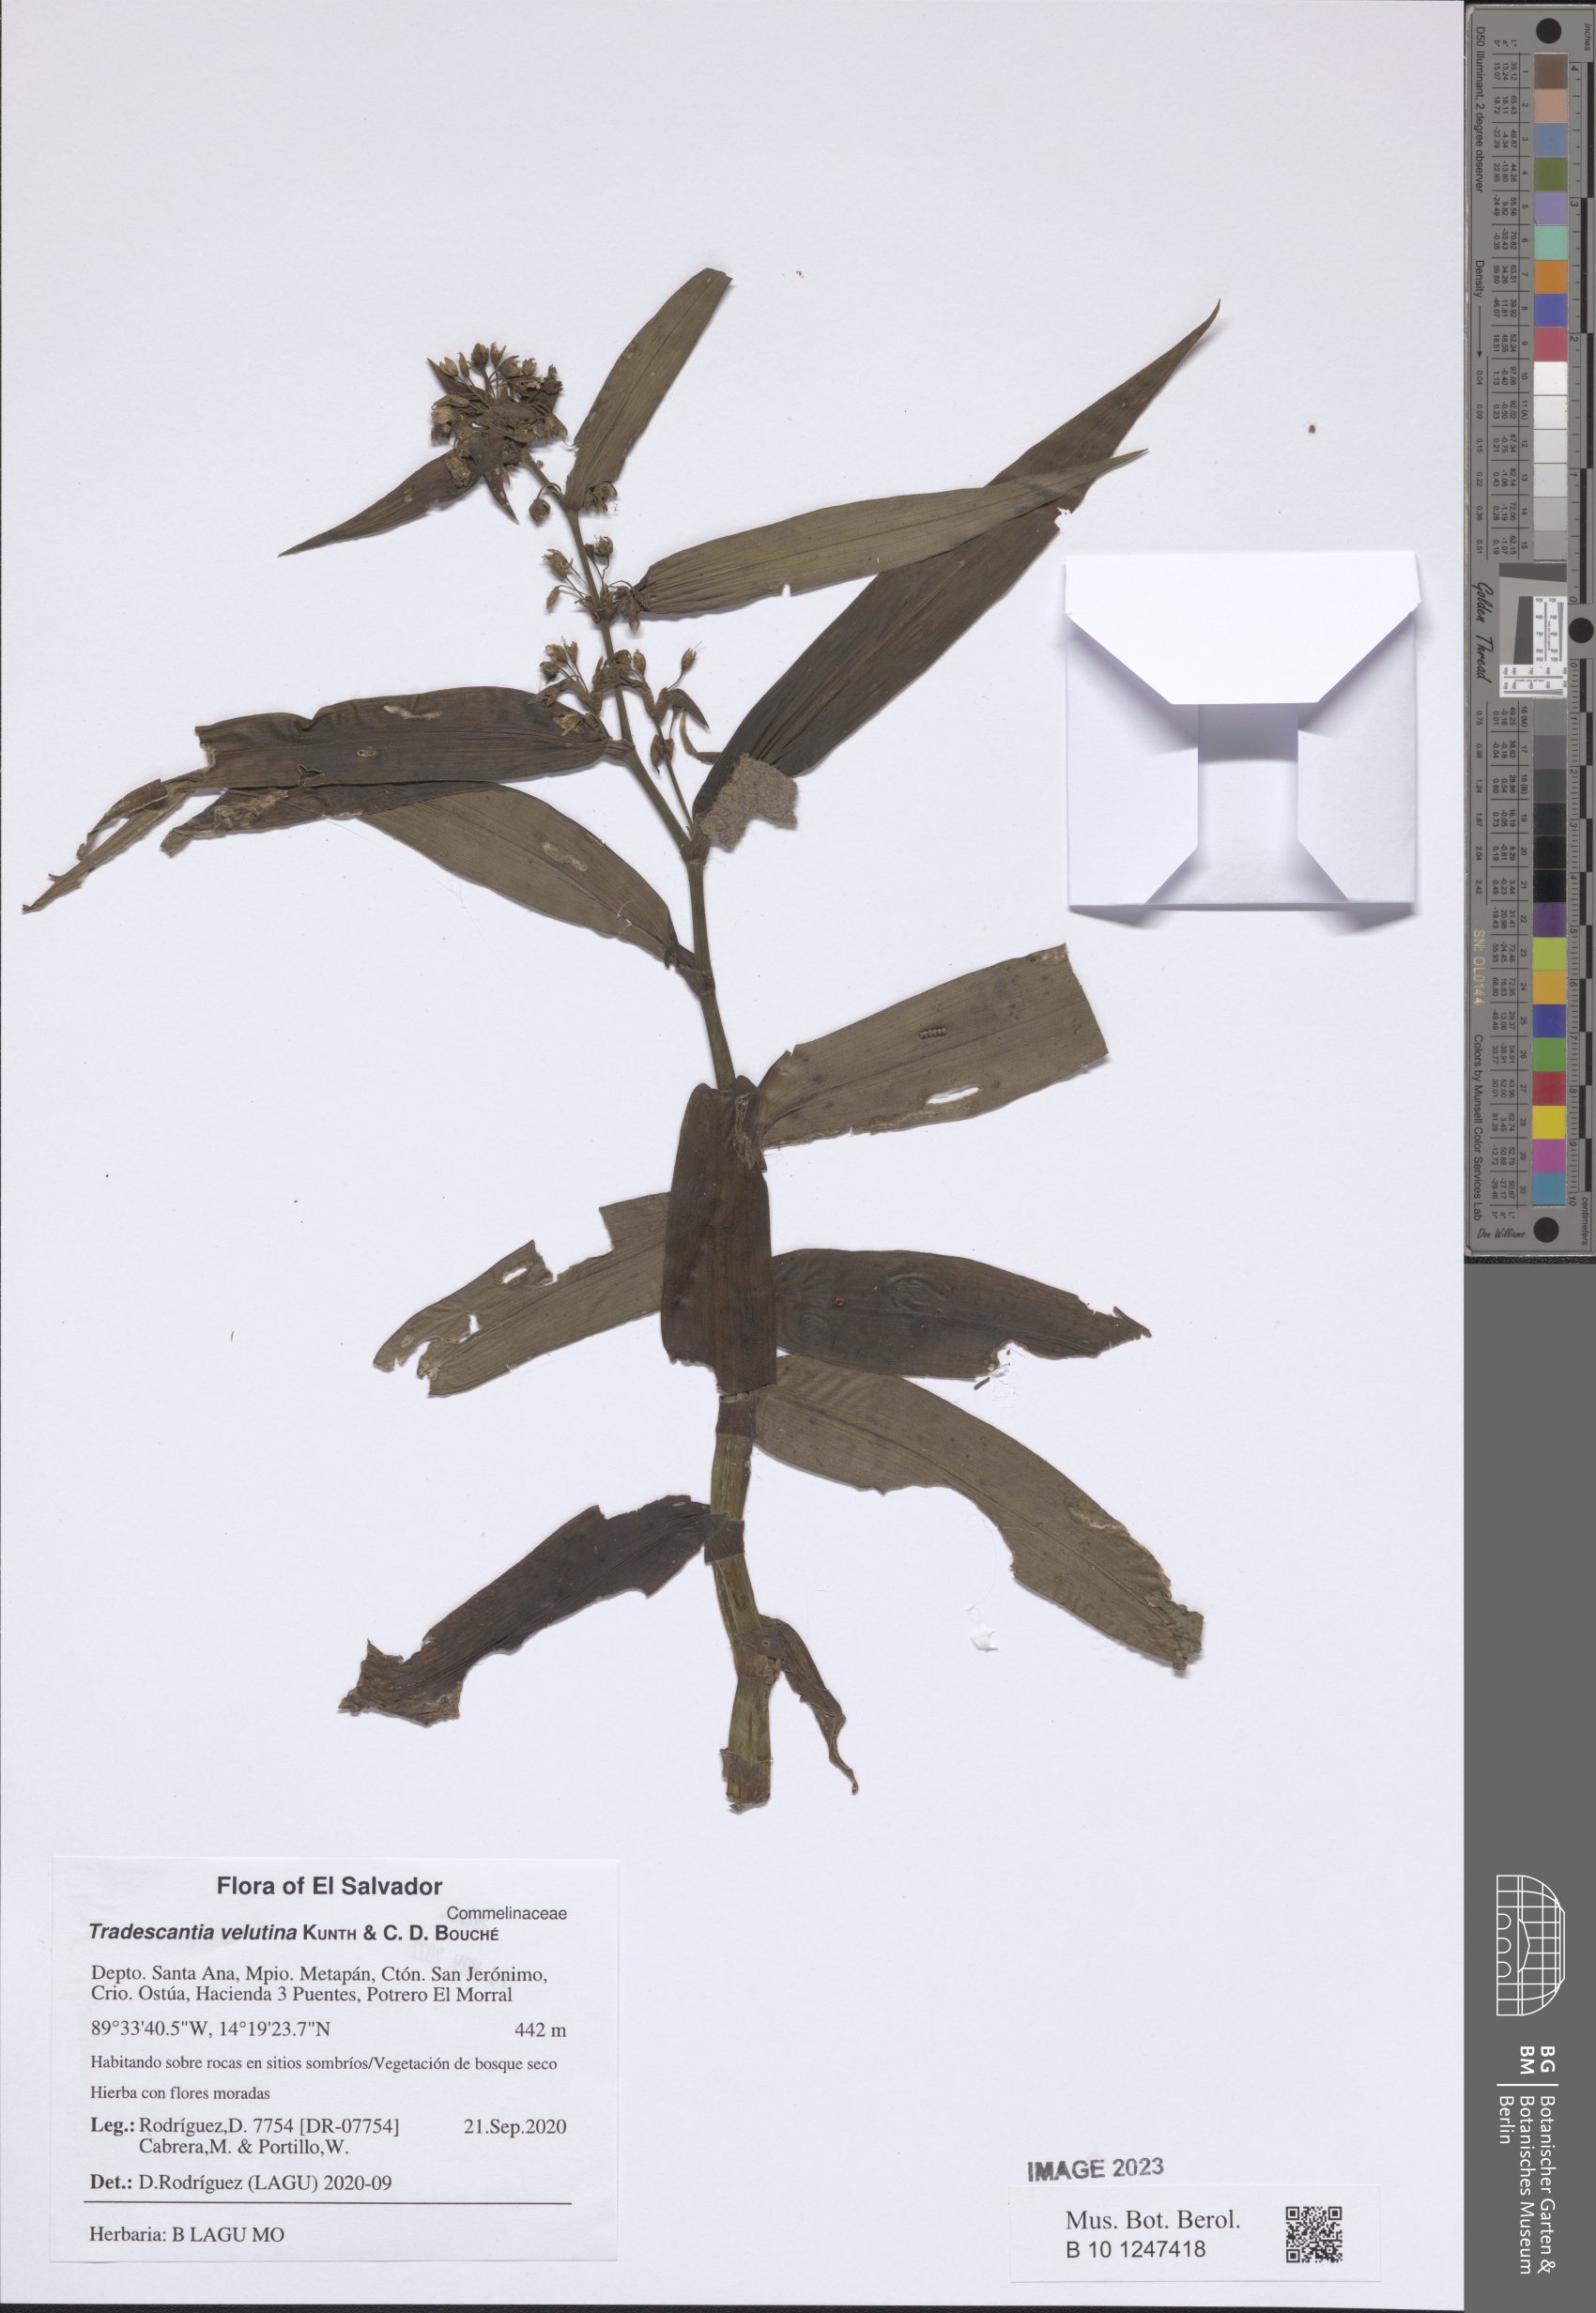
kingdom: Plantae
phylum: Tracheophyta
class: Liliopsida
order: Commelinales
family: Commelinaceae
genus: Tradescantia
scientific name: Tradescantia velutina
